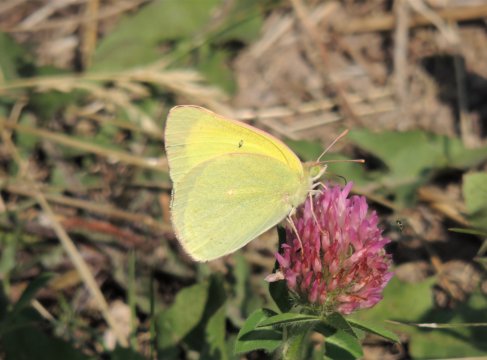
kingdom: Animalia
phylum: Arthropoda
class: Insecta
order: Lepidoptera
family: Pieridae
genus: Colias
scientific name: Colias christina
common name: Christina Sulphur
